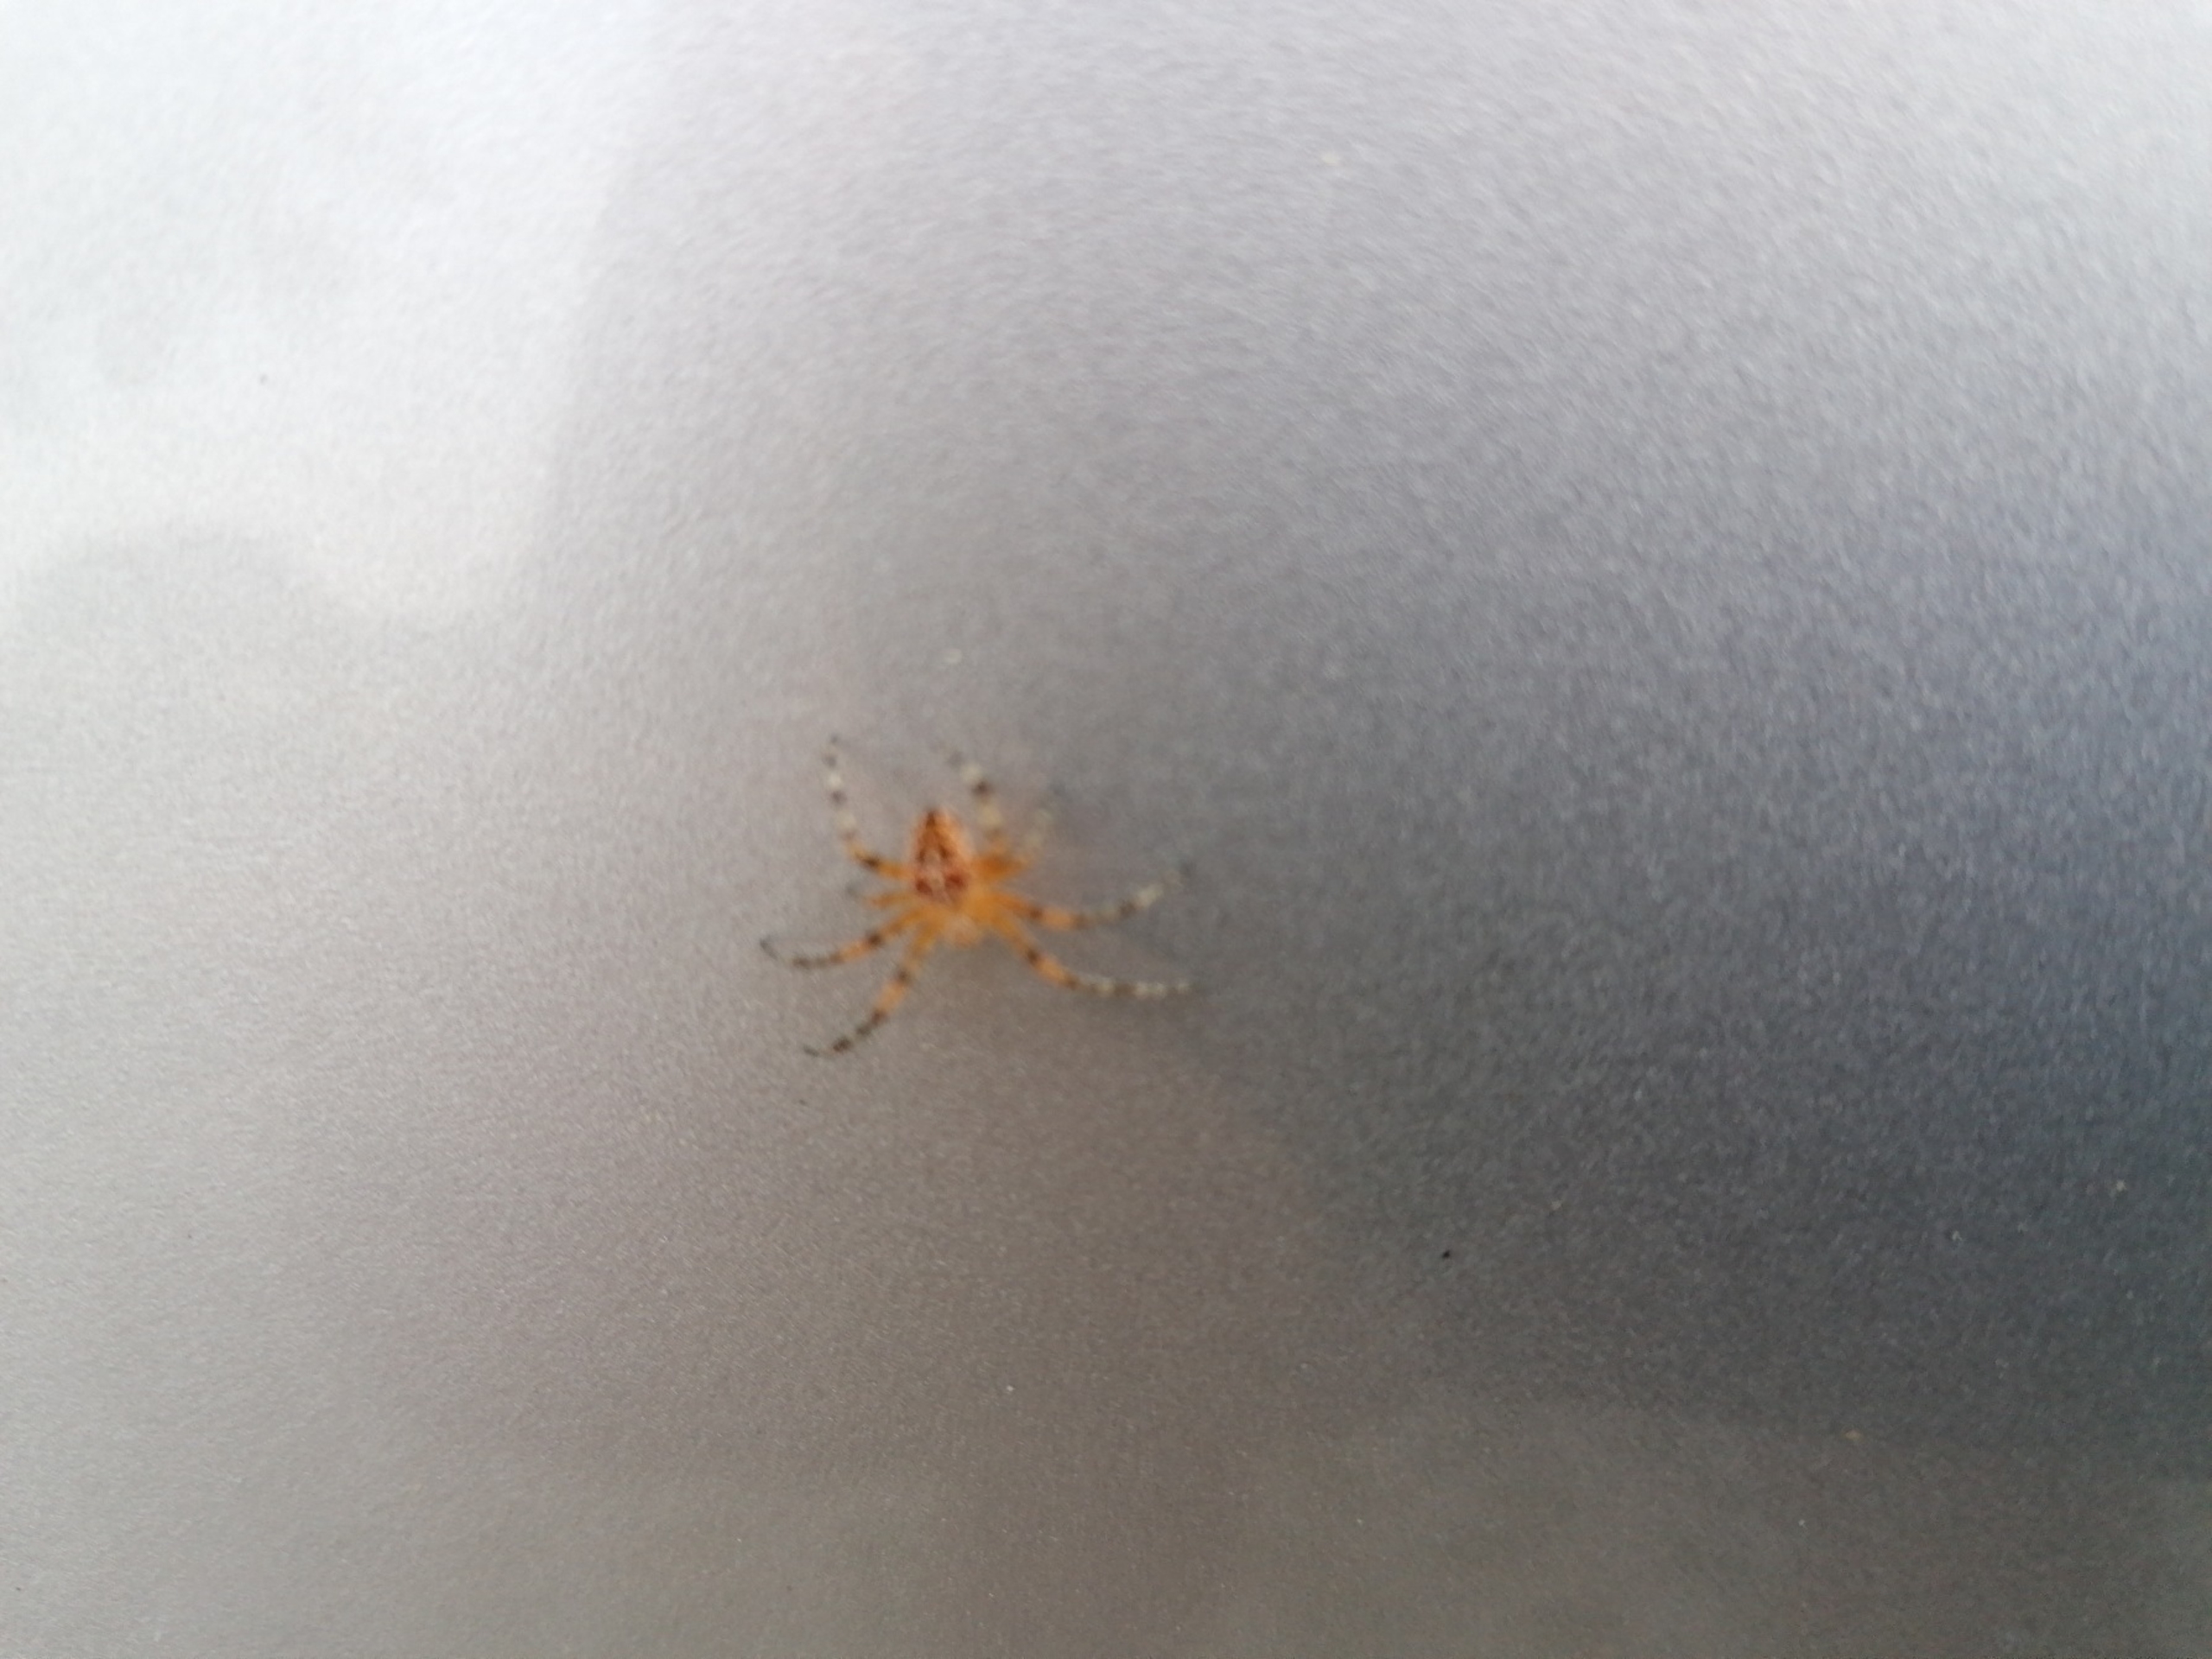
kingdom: Animalia
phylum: Arthropoda
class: Arachnida
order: Araneae
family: Araneidae
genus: Araneus
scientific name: Araneus diadematus
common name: Korsedderkop
